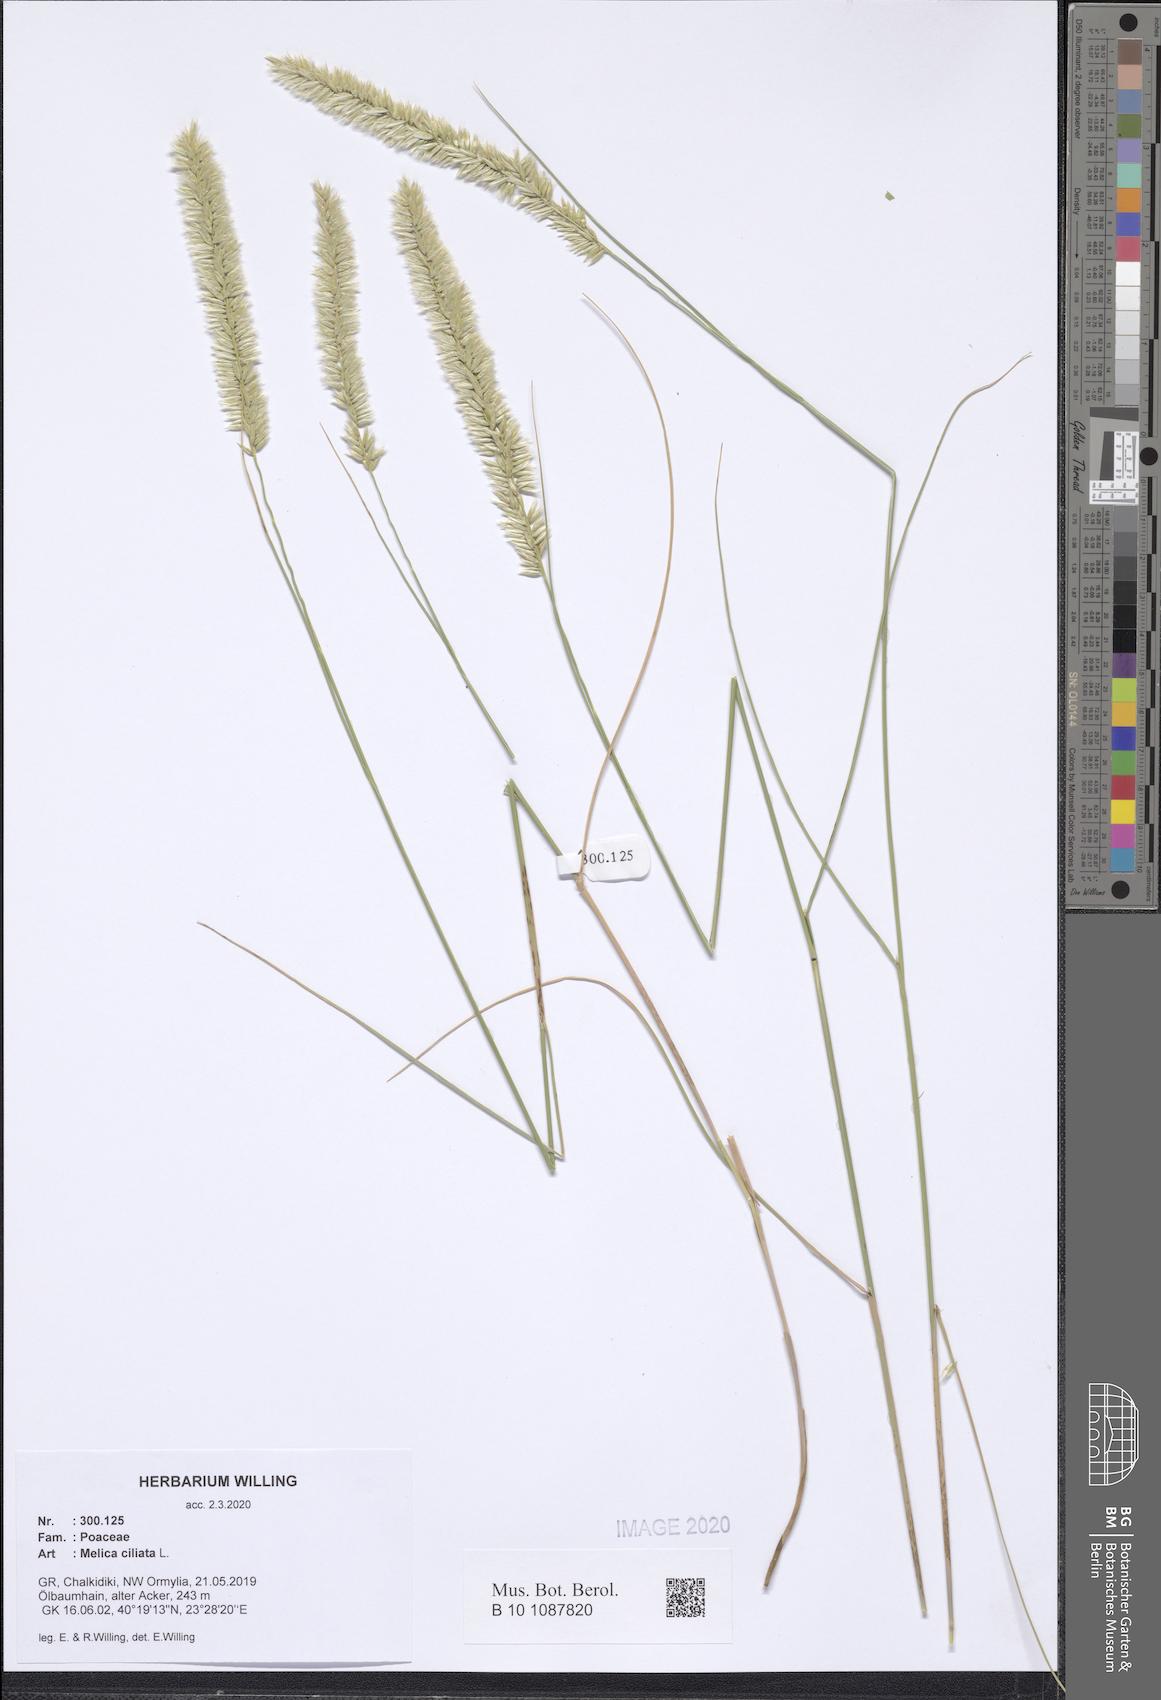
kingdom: Plantae
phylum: Tracheophyta
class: Liliopsida
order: Poales
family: Poaceae
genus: Melica
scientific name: Melica ciliata
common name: Hairy melicgrass
